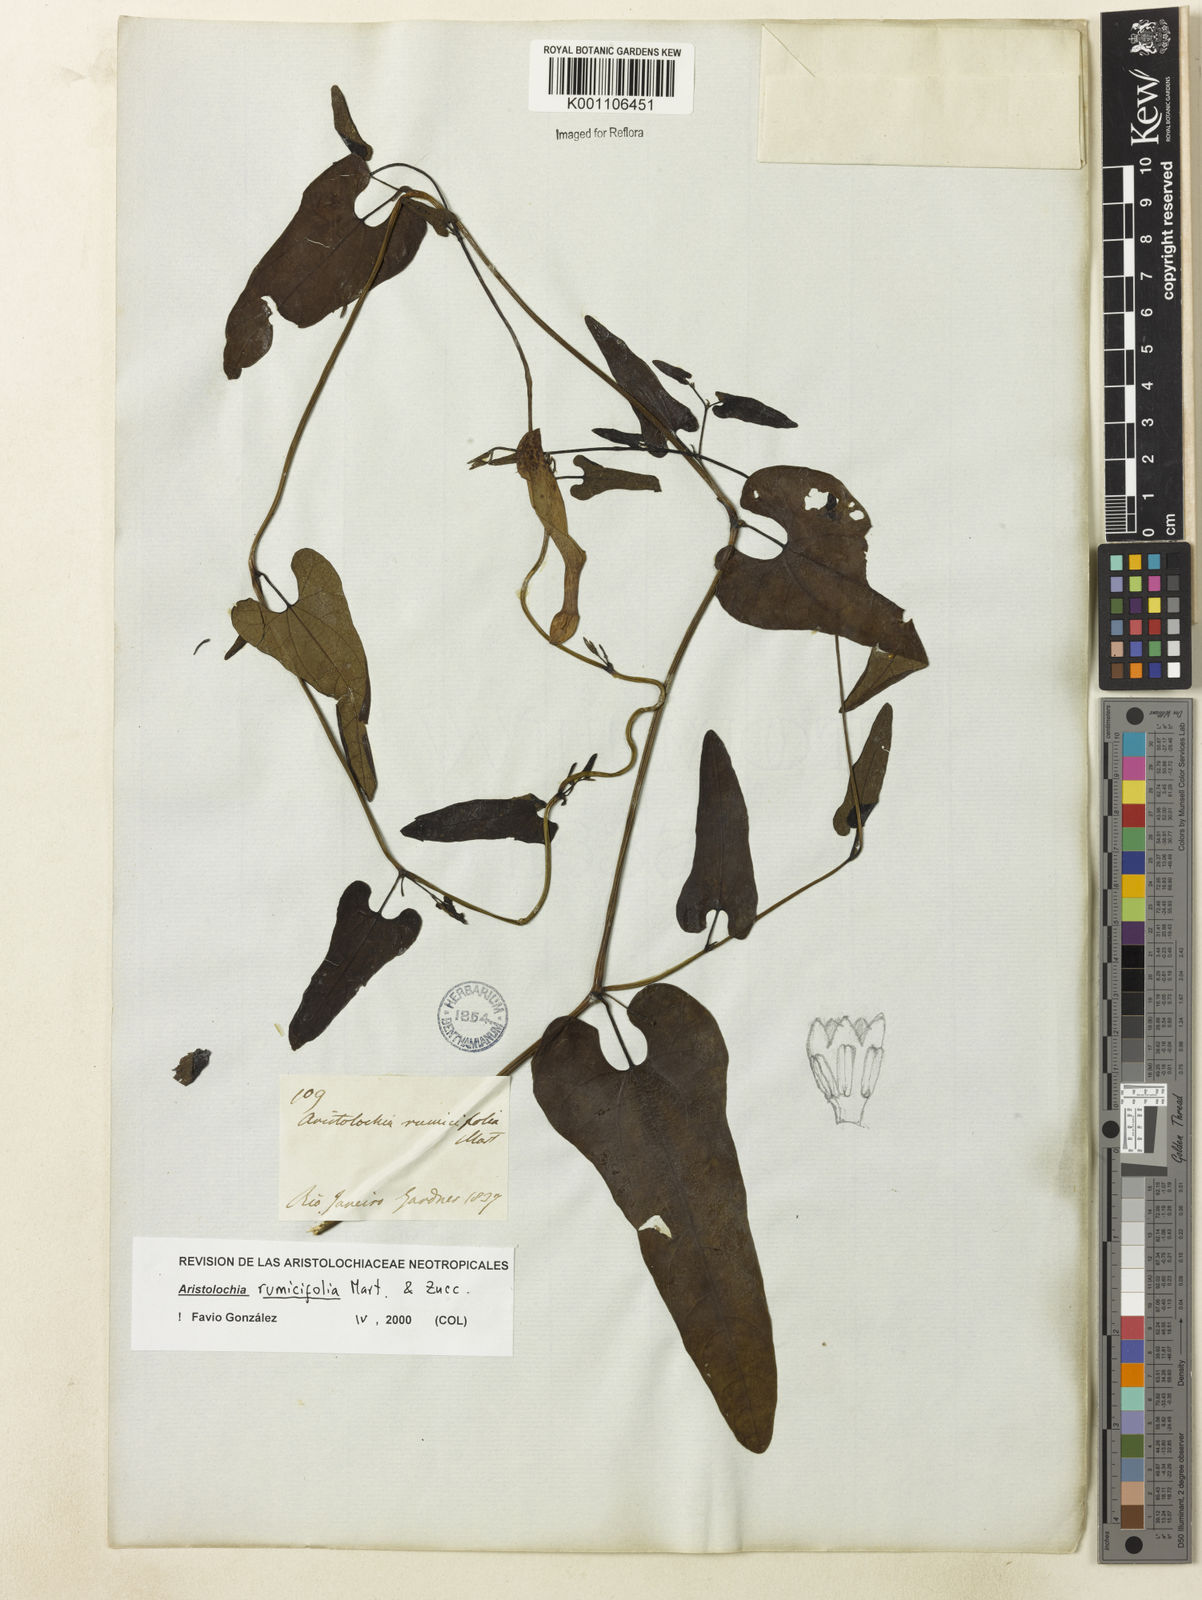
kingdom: Plantae
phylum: Tracheophyta
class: Magnoliopsida
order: Piperales
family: Aristolochiaceae
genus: Aristolochia
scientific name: Aristolochia rumicifolia
